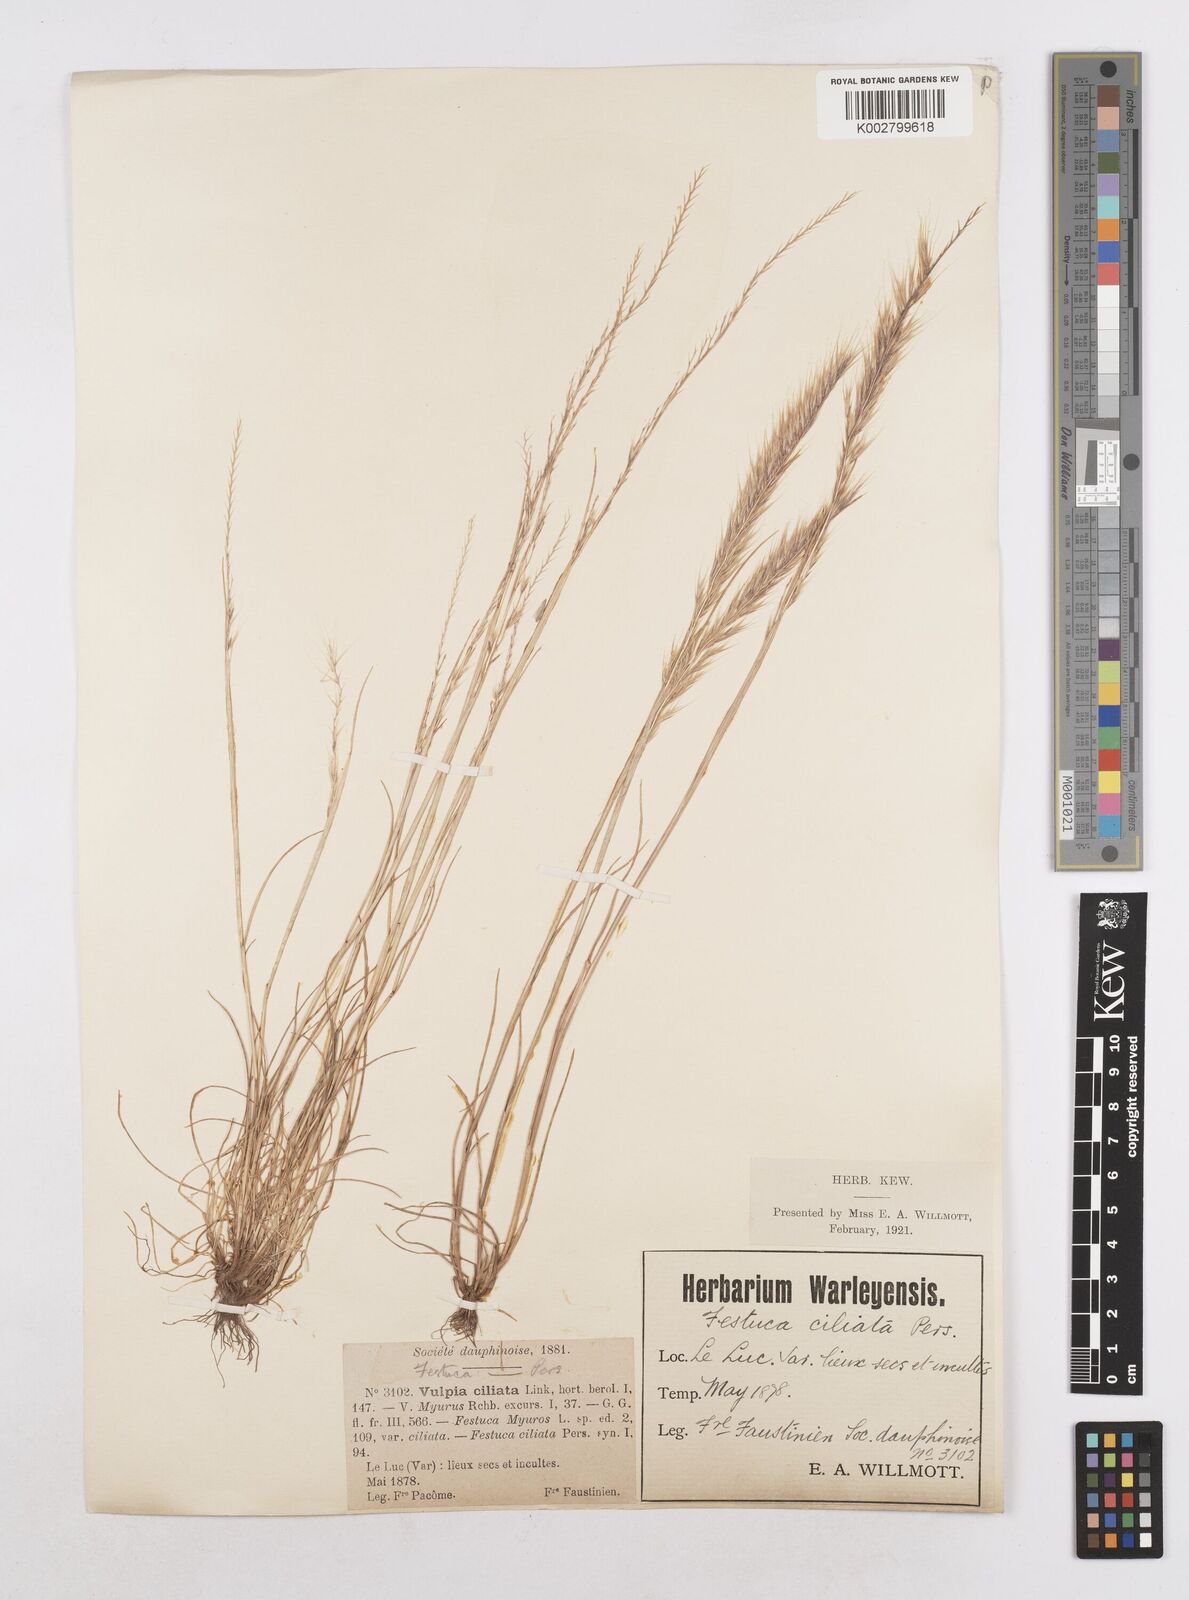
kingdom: Plantae
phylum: Tracheophyta
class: Liliopsida
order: Poales
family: Poaceae
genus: Festuca
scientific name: Festuca
